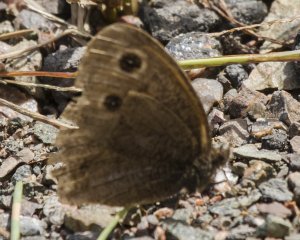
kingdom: Animalia
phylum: Arthropoda
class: Insecta
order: Lepidoptera
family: Nymphalidae
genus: Cercyonis
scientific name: Cercyonis pegala
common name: Common Wood-Nymph
